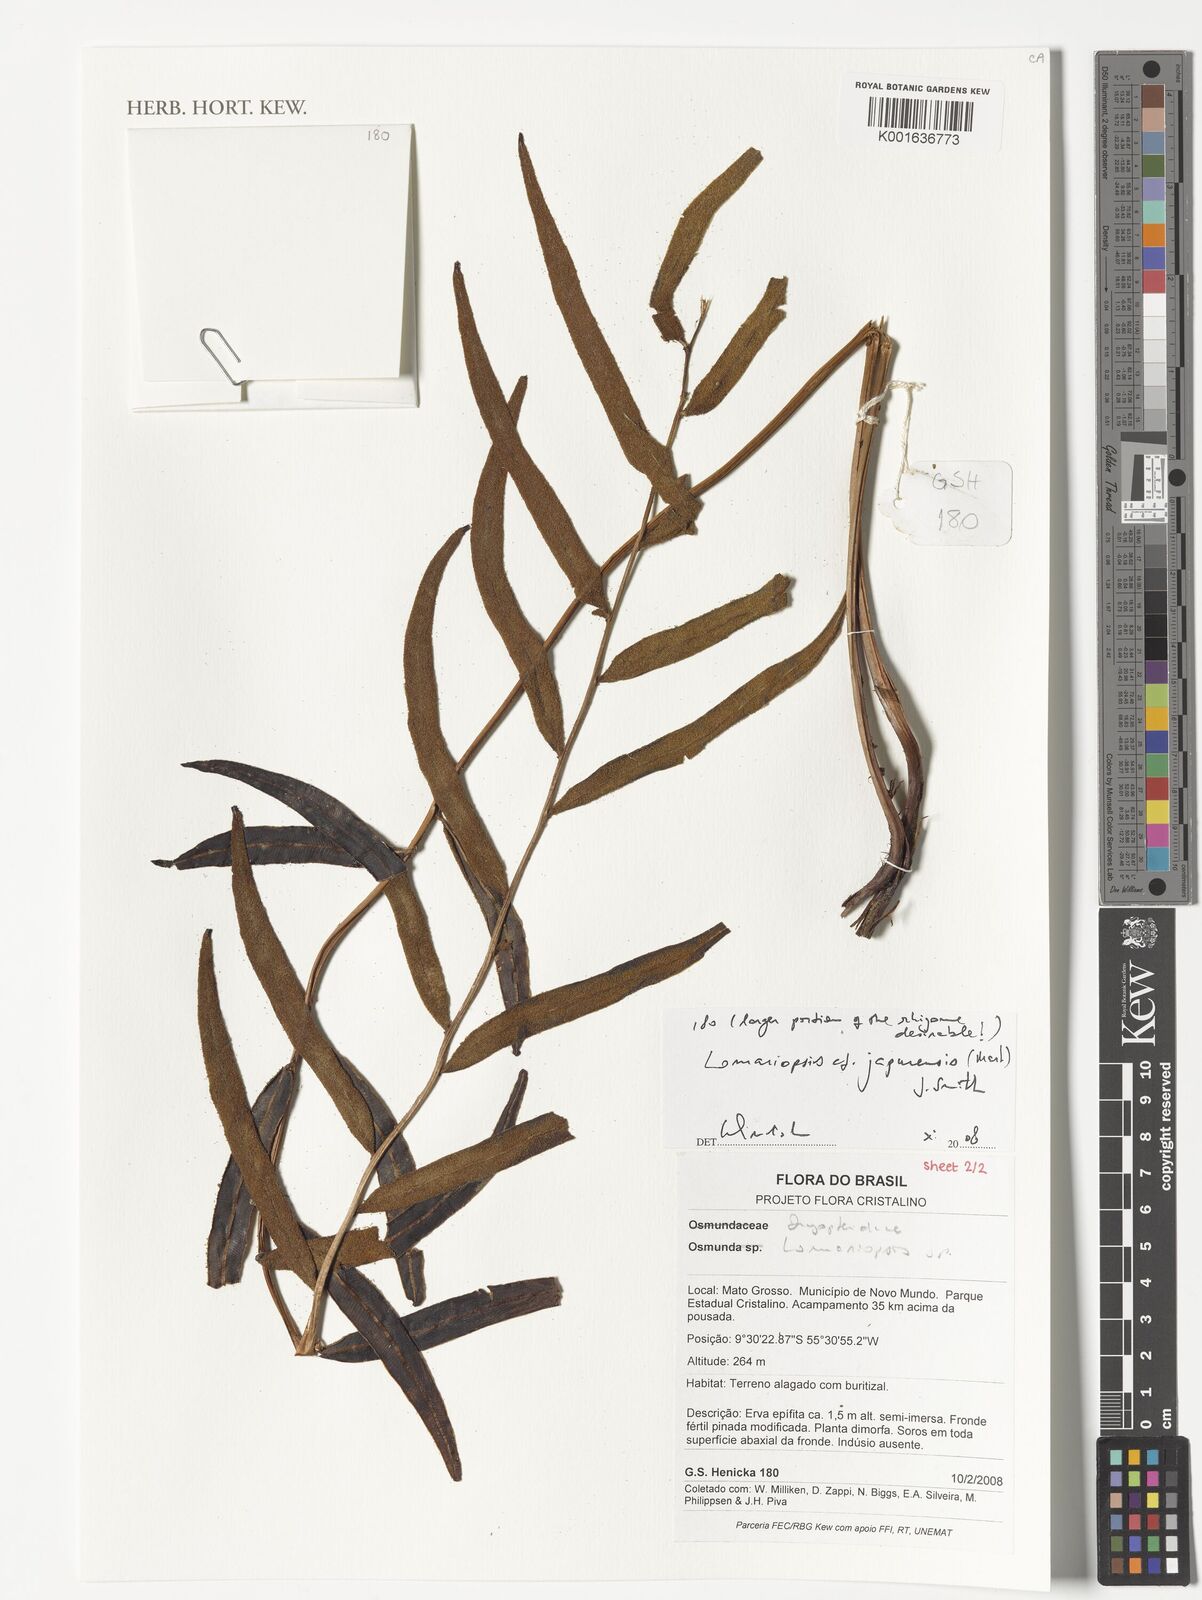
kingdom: Plantae
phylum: Tracheophyta
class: Polypodiopsida
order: Polypodiales
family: Lomariopsidaceae
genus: Lomariopsis
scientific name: Lomariopsis japurensis
